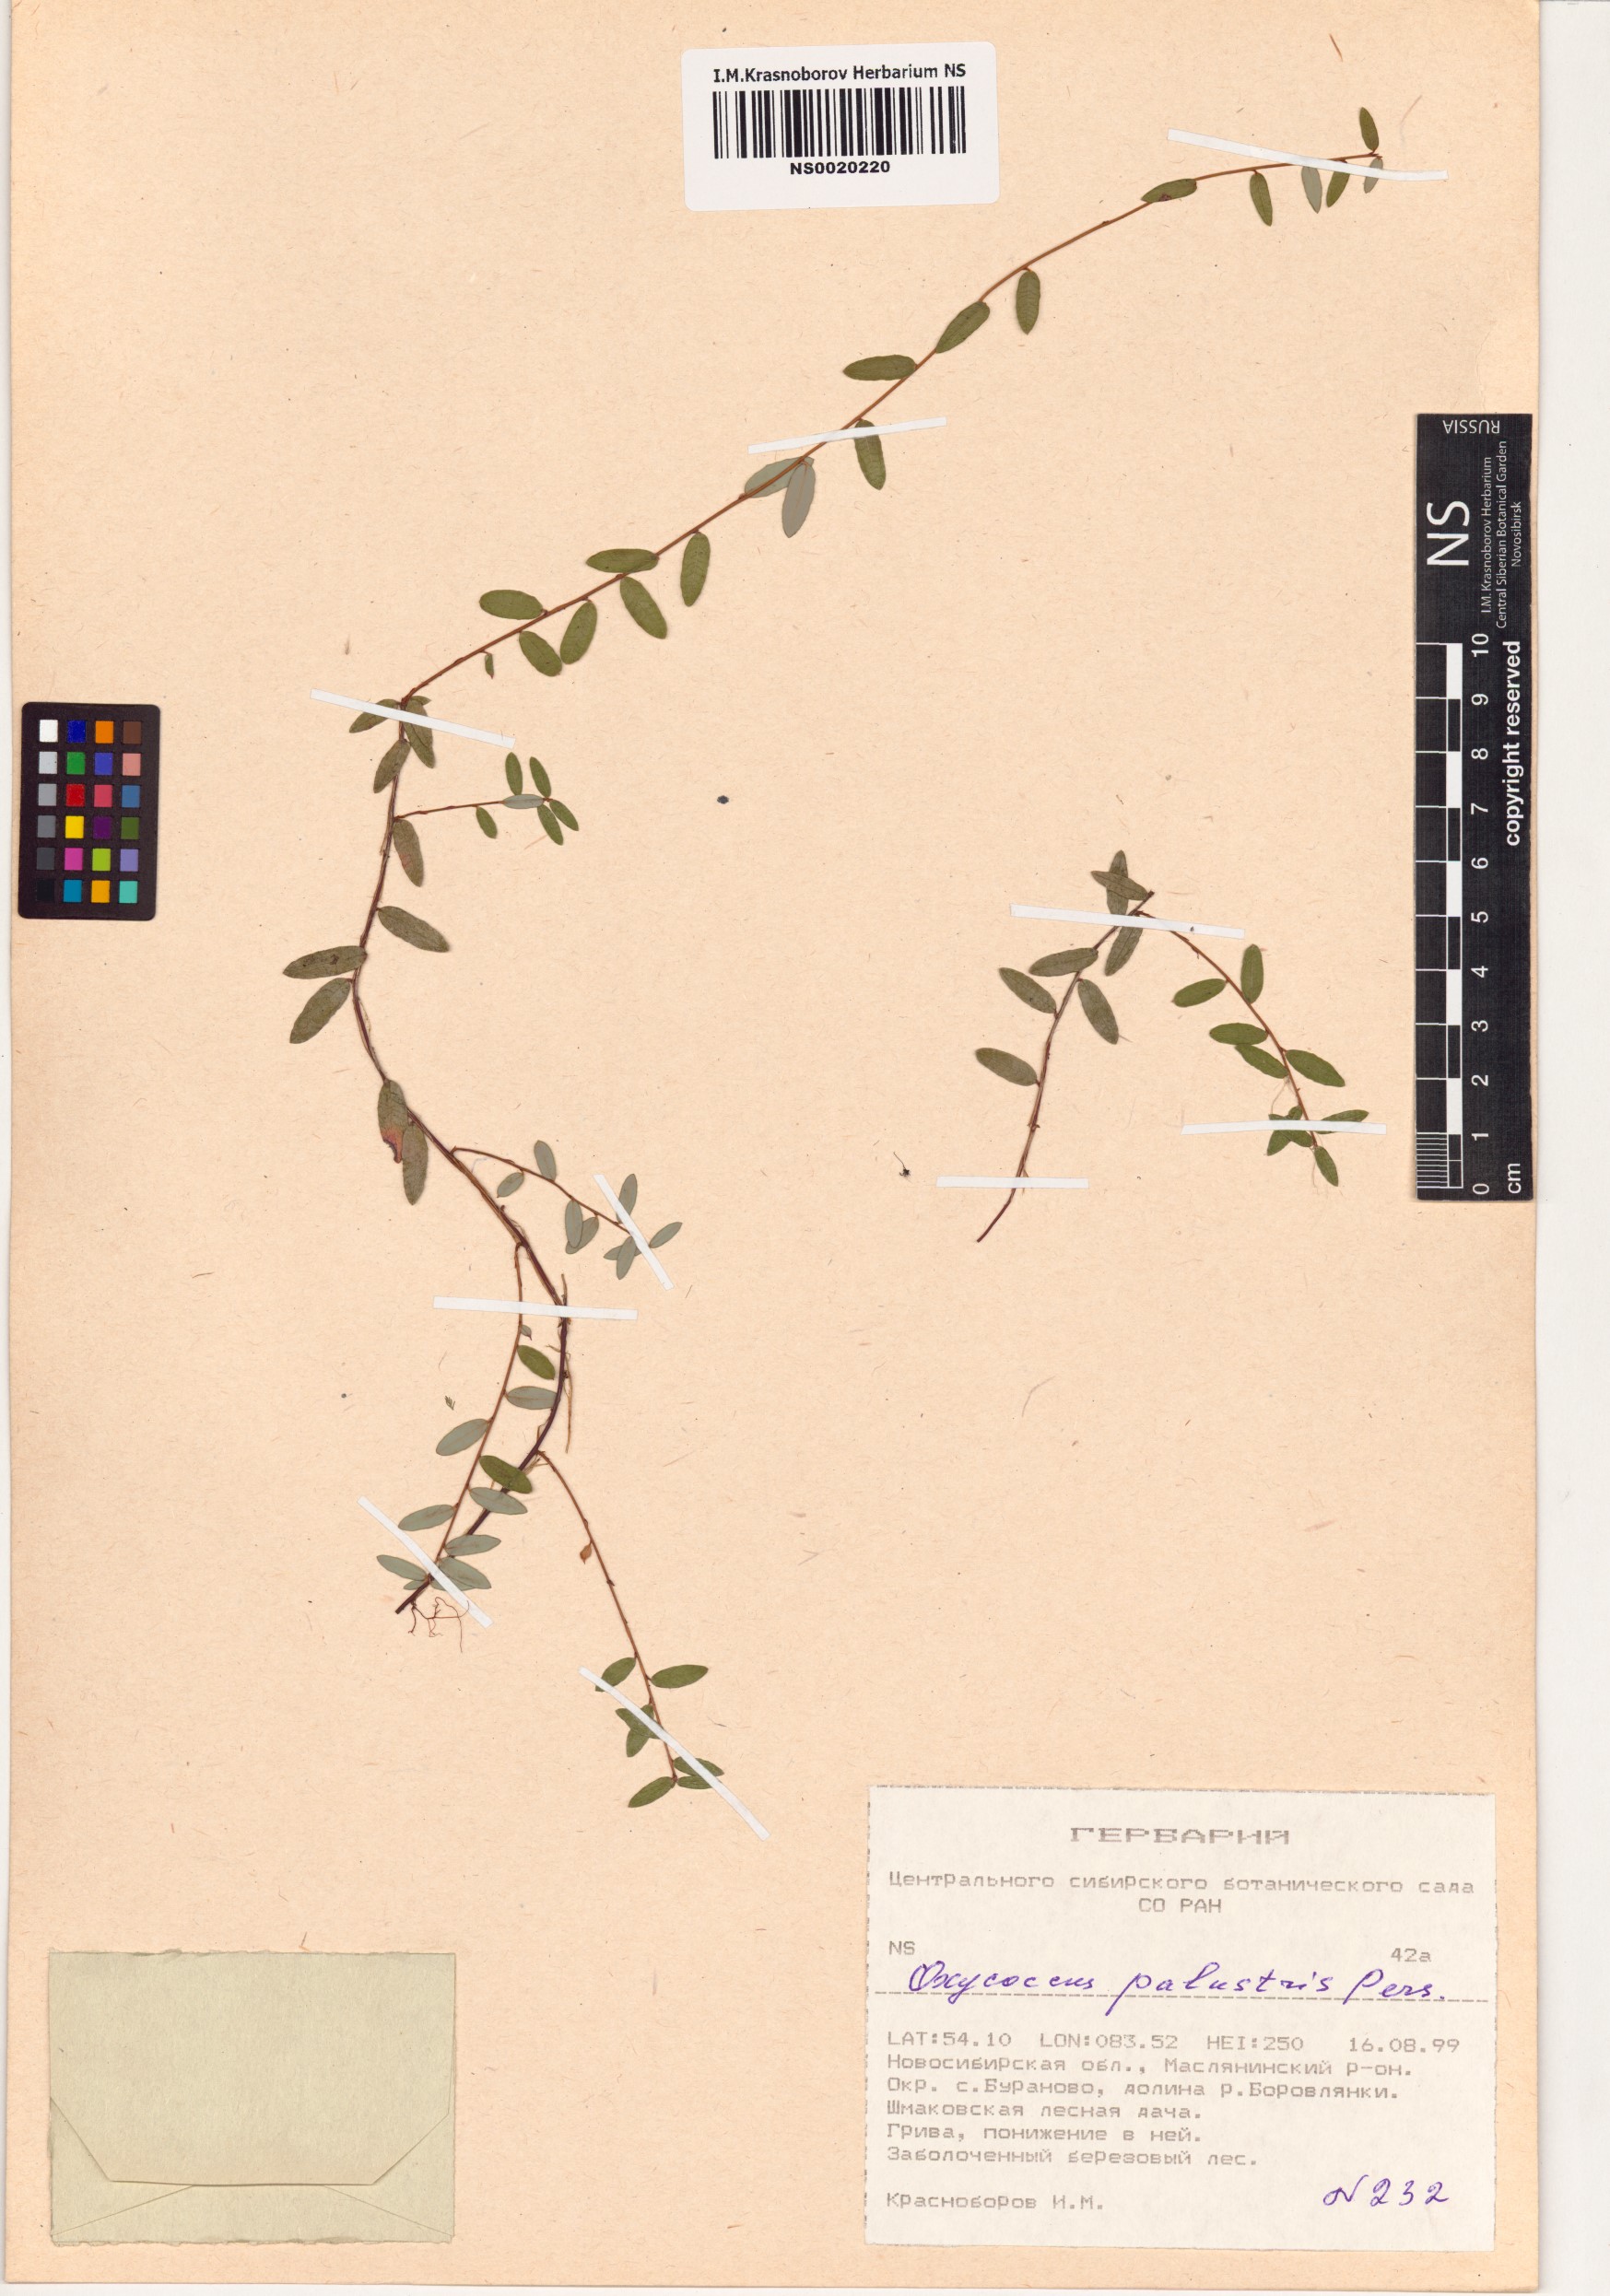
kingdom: Plantae
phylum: Tracheophyta
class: Magnoliopsida
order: Ericales
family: Ericaceae
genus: Vaccinium
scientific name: Vaccinium oxycoccos
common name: Cranberry
